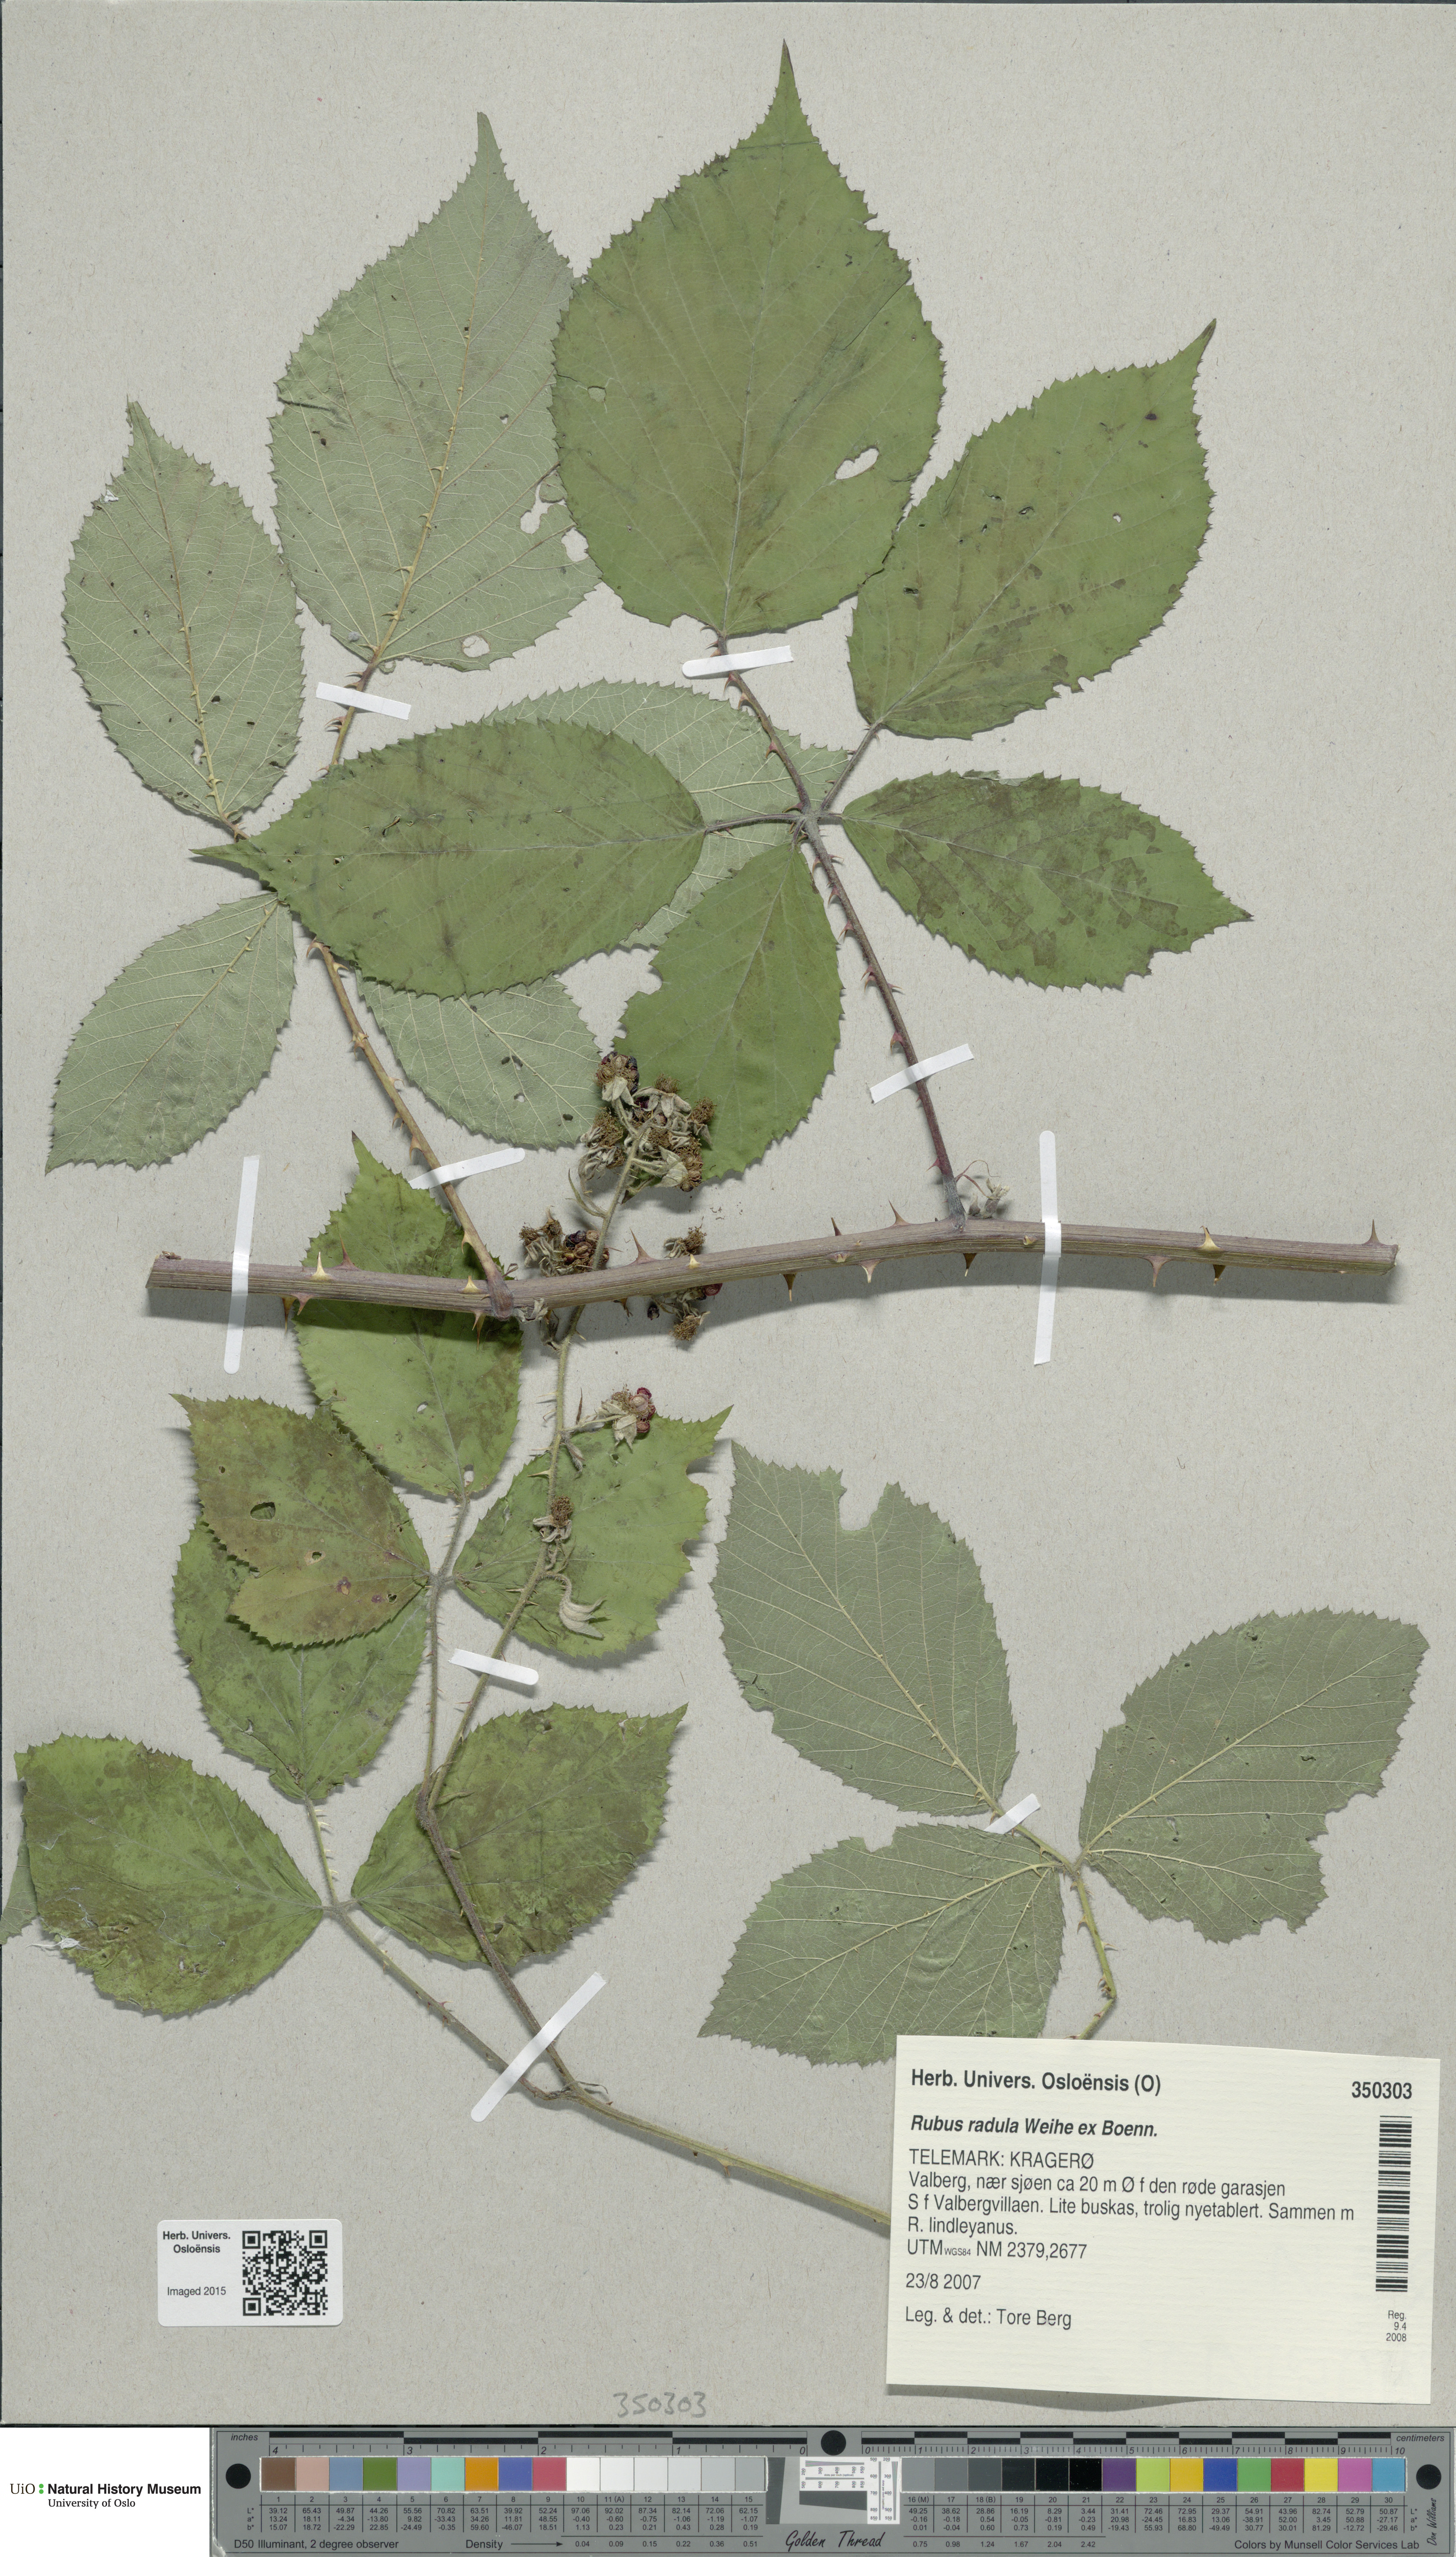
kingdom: Plantae
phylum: Tracheophyta
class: Magnoliopsida
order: Rosales
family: Rosaceae
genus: Rubus
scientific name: Rubus radula
